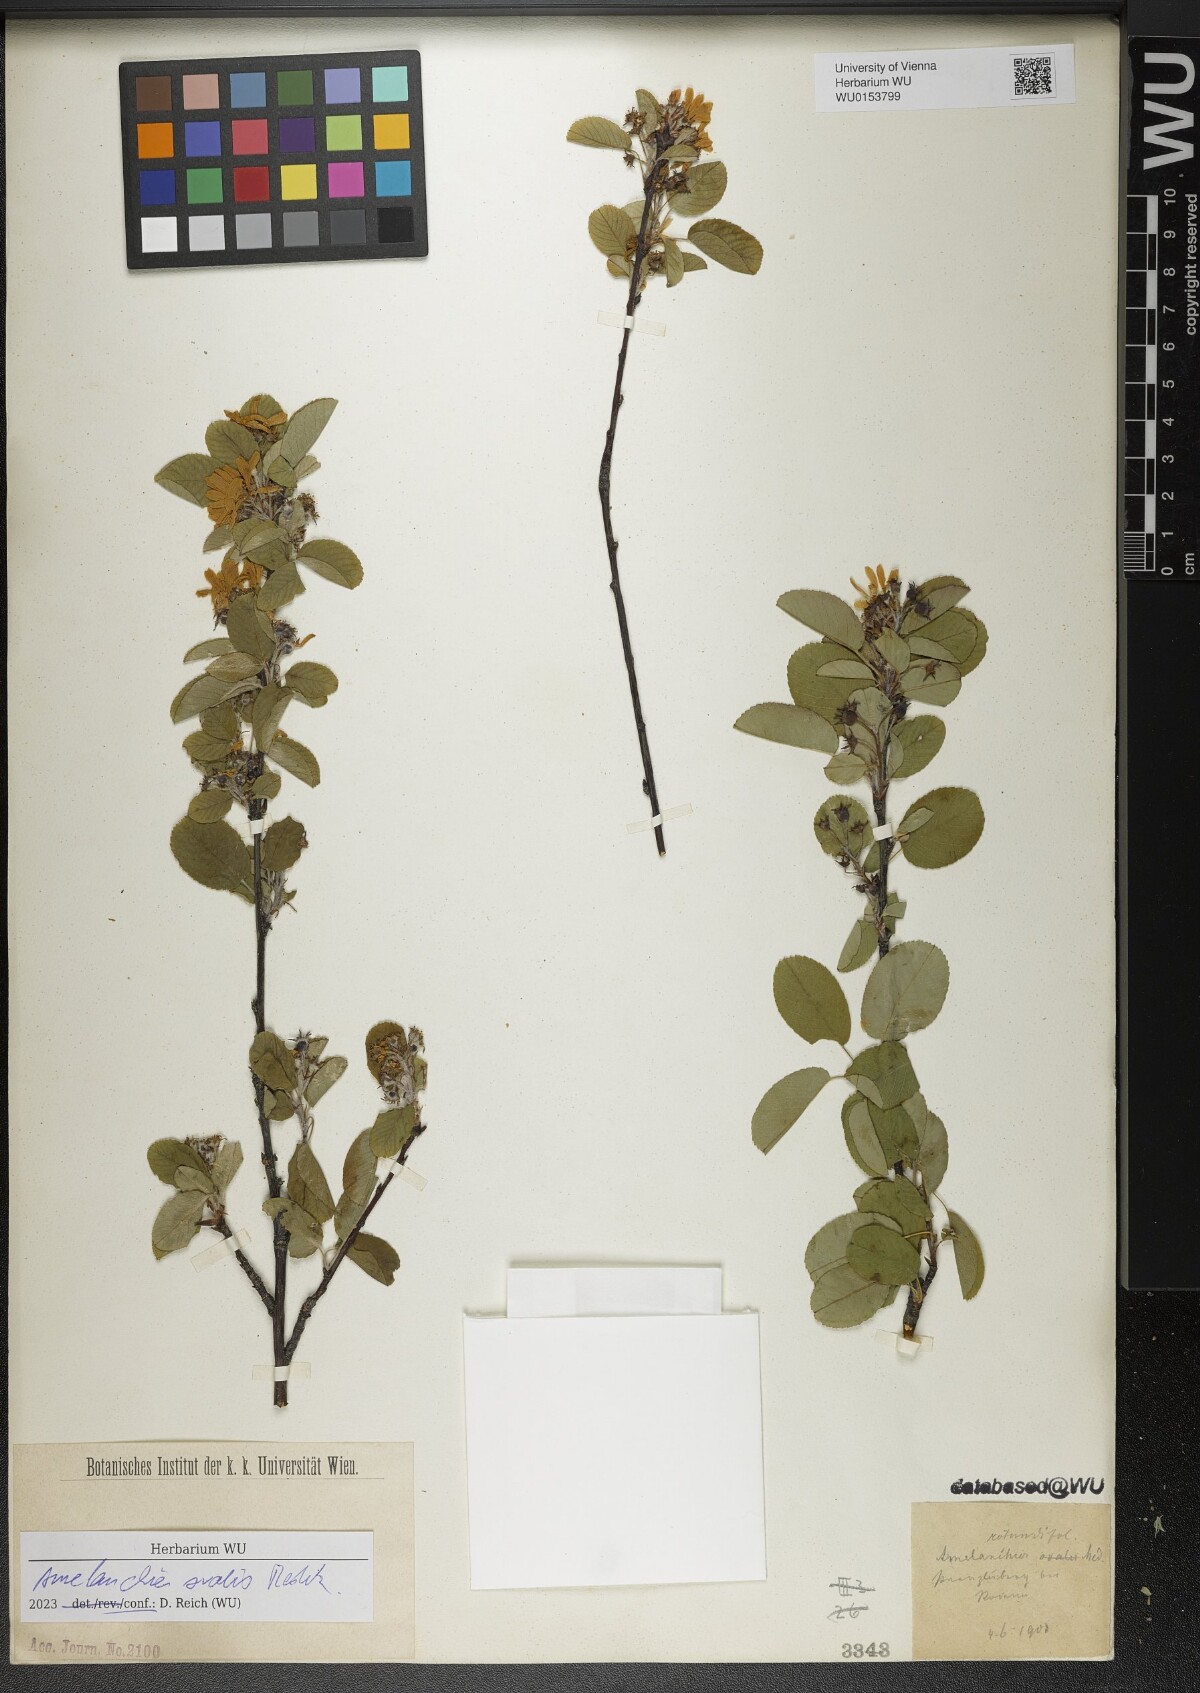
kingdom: Plantae
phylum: Tracheophyta
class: Magnoliopsida
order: Rosales
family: Rosaceae
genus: Amelanchier
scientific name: Amelanchier ovalis
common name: Serviceberry
